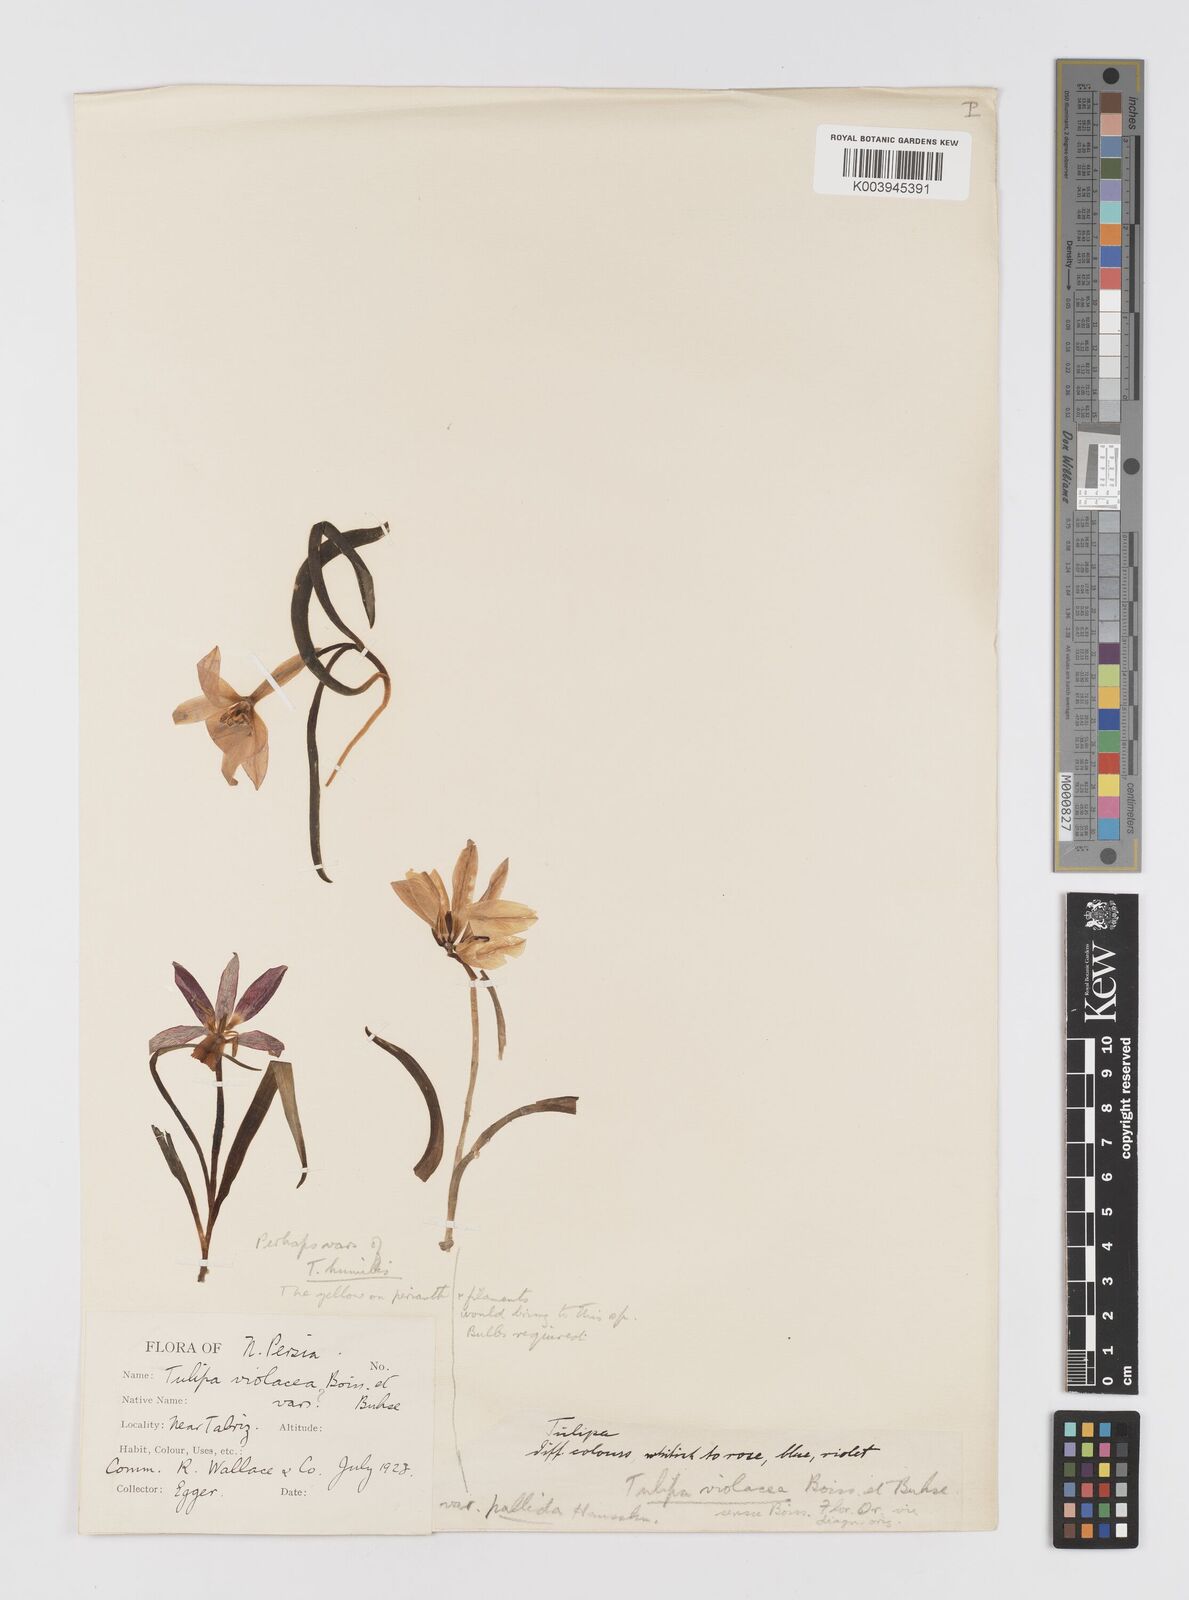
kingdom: Plantae
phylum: Tracheophyta
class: Liliopsida
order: Liliales
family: Liliaceae
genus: Tulipa
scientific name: Tulipa humilis
